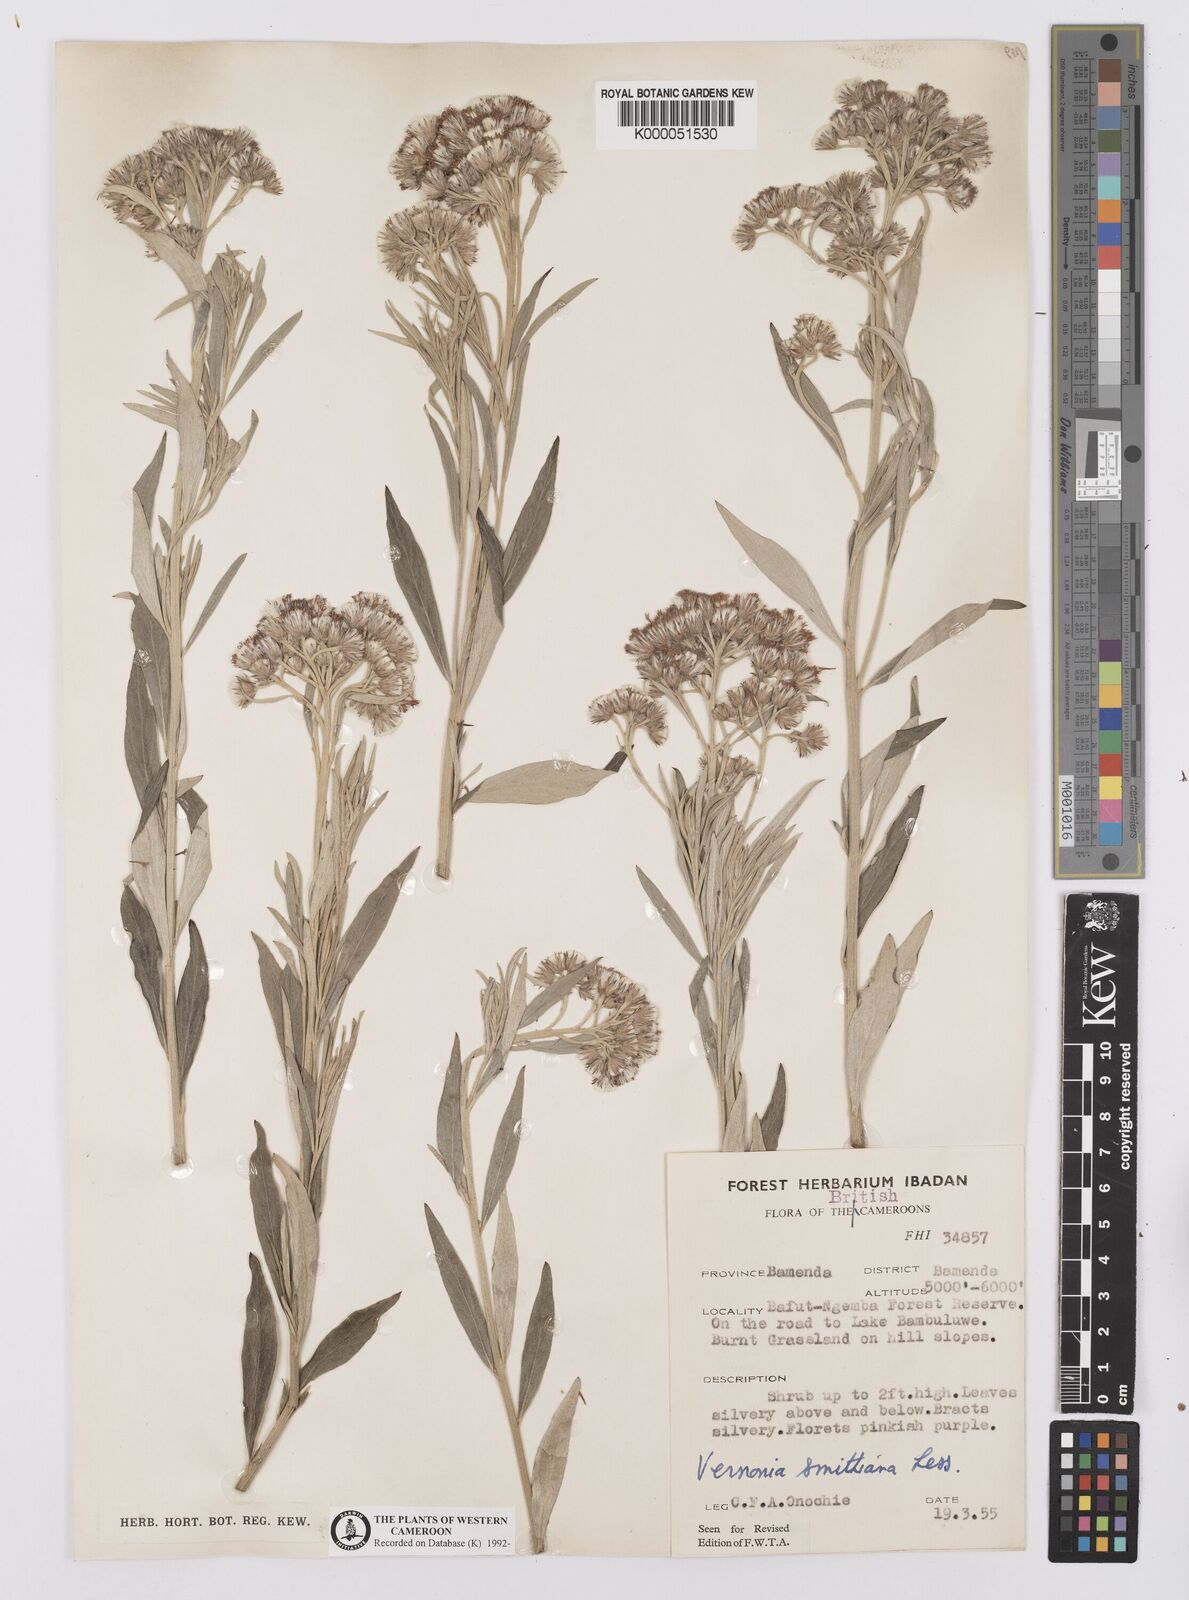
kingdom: Plantae
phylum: Tracheophyta
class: Magnoliopsida
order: Asterales
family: Asteraceae
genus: Hilliardiella
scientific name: Hilliardiella smithiana
